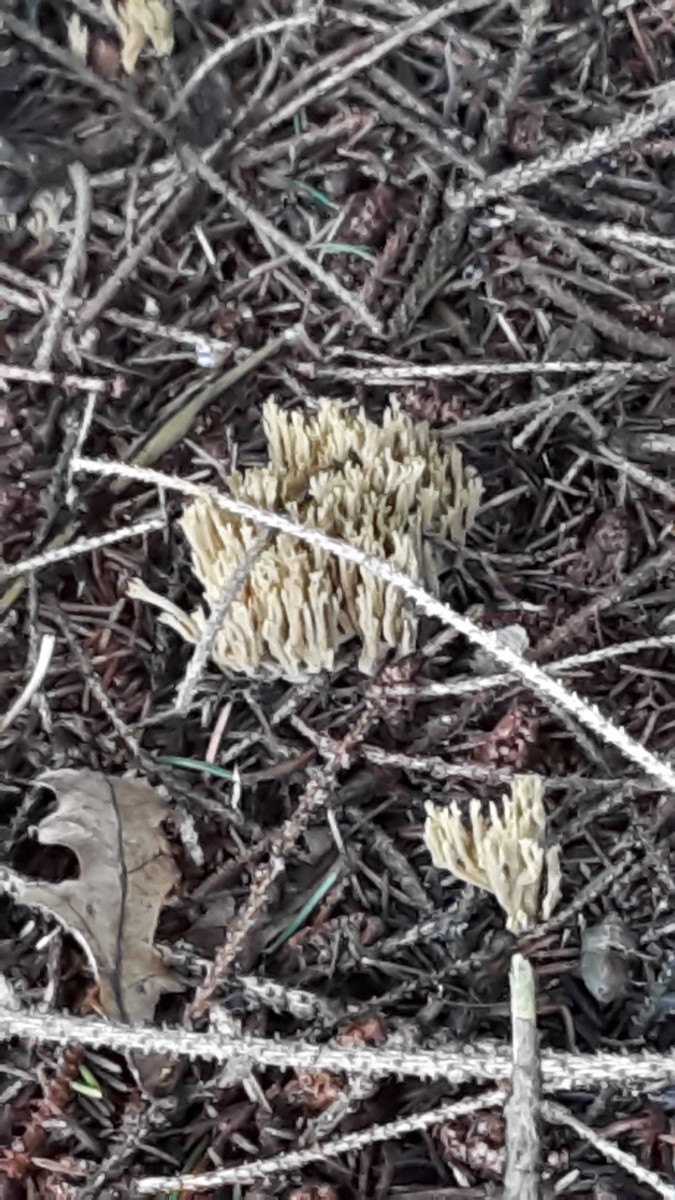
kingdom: Fungi
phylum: Basidiomycota
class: Agaricomycetes
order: Gomphales
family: Gomphaceae
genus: Phaeoclavulina
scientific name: Phaeoclavulina abietina
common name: gulgrøn koralsvamp
